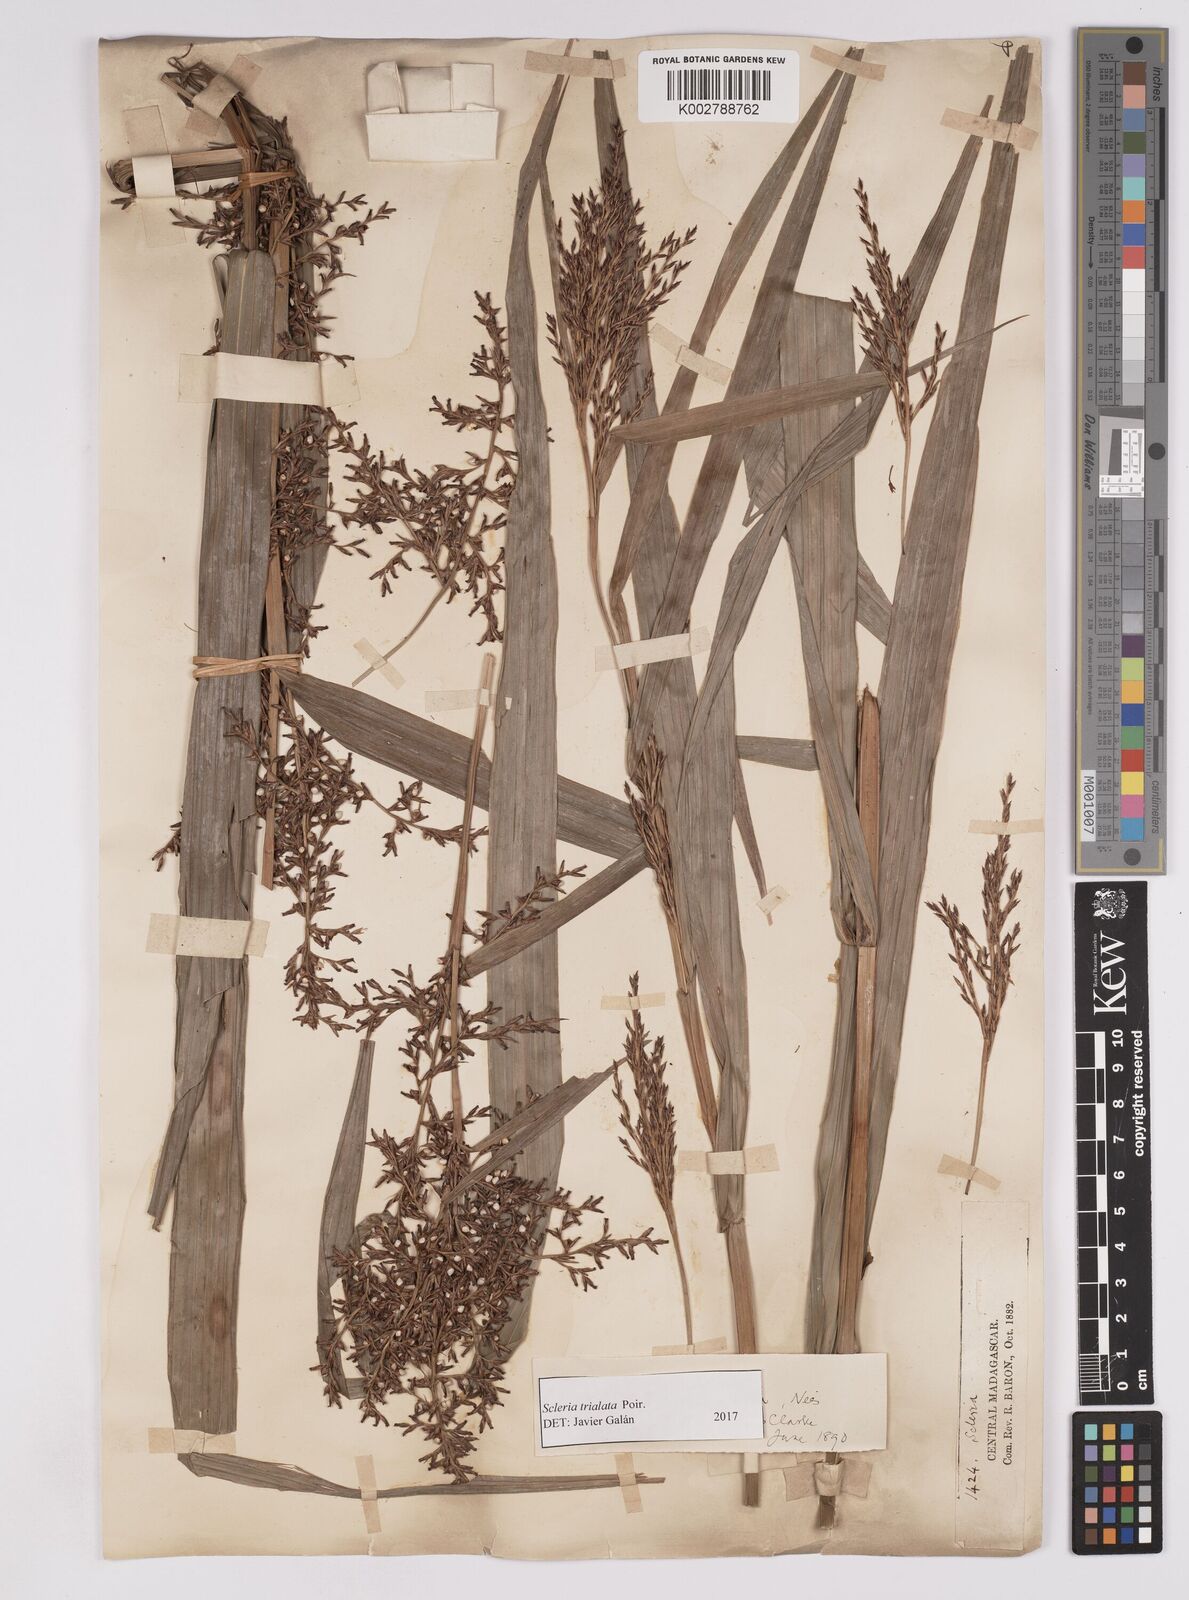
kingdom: Plantae
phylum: Tracheophyta
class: Liliopsida
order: Poales
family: Cyperaceae
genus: Scleria
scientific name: Scleria trialata
